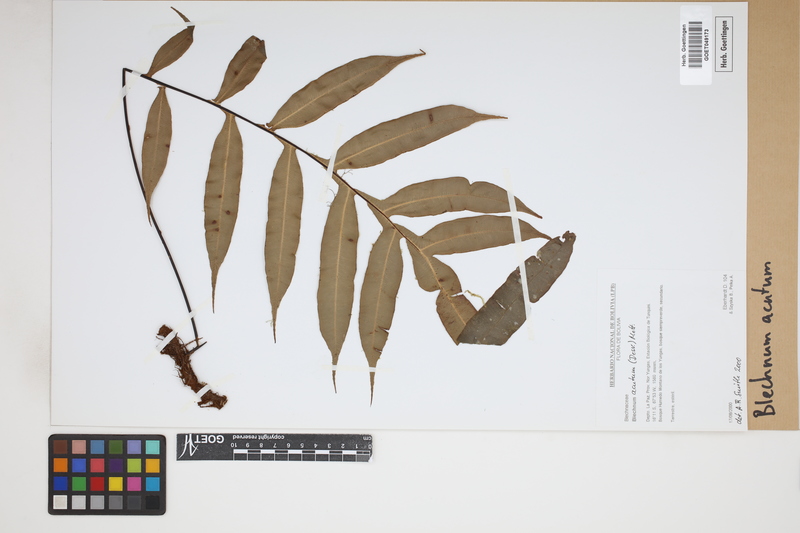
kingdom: Plantae
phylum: Tracheophyta
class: Polypodiopsida
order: Polypodiales
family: Blechnaceae
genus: Lomaridium
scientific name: Lomaridium acutum
